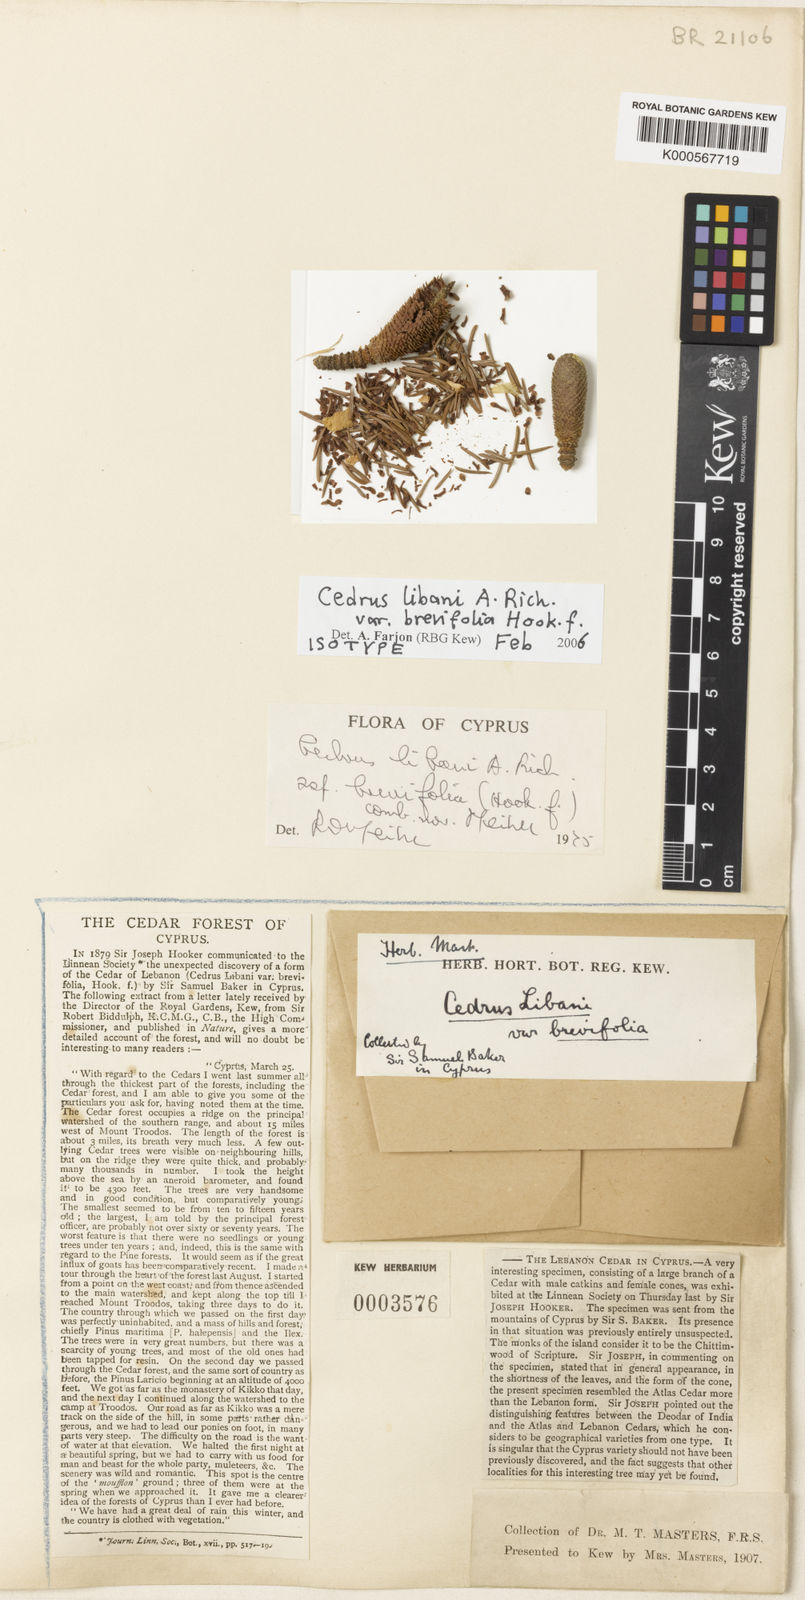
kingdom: Plantae
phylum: Tracheophyta
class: Pinopsida
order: Pinales
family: Pinaceae
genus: Cedrus
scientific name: Cedrus libani
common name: Cedar-of-lebanon
